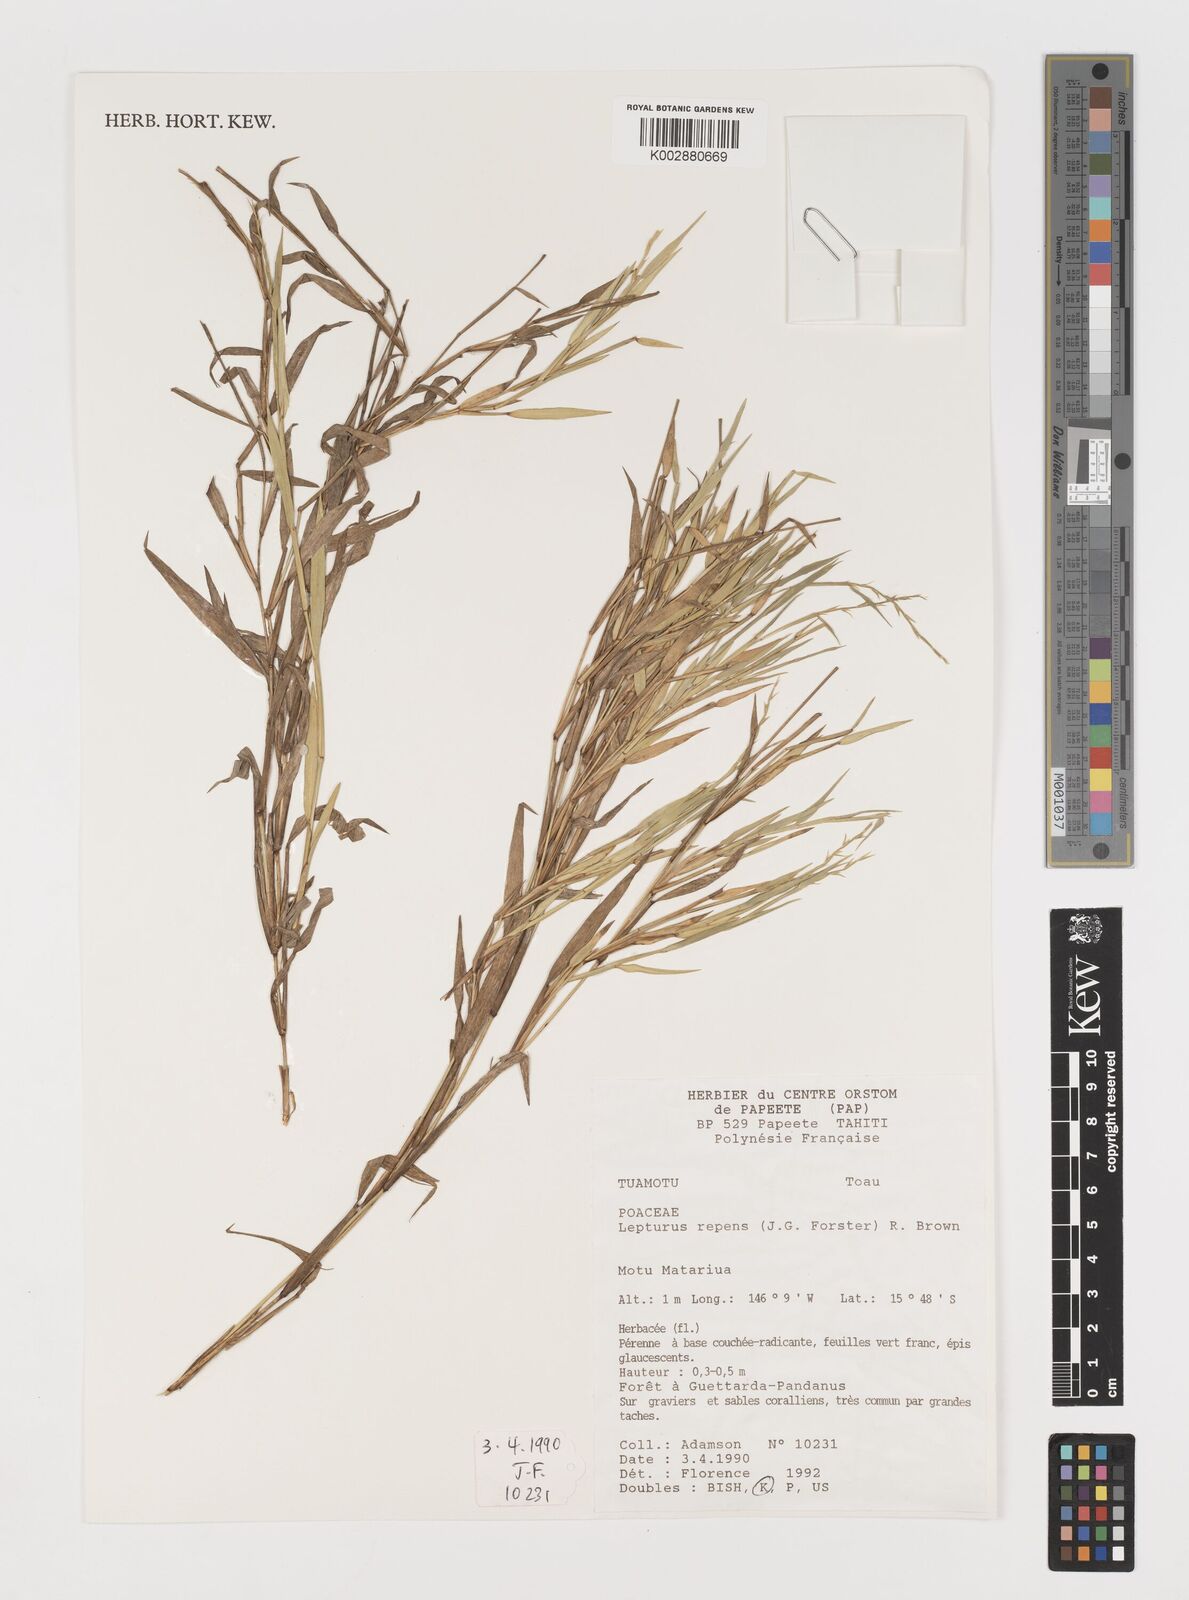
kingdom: Plantae
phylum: Tracheophyta
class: Liliopsida
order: Poales
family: Poaceae
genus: Lepturus
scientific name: Lepturus repens
